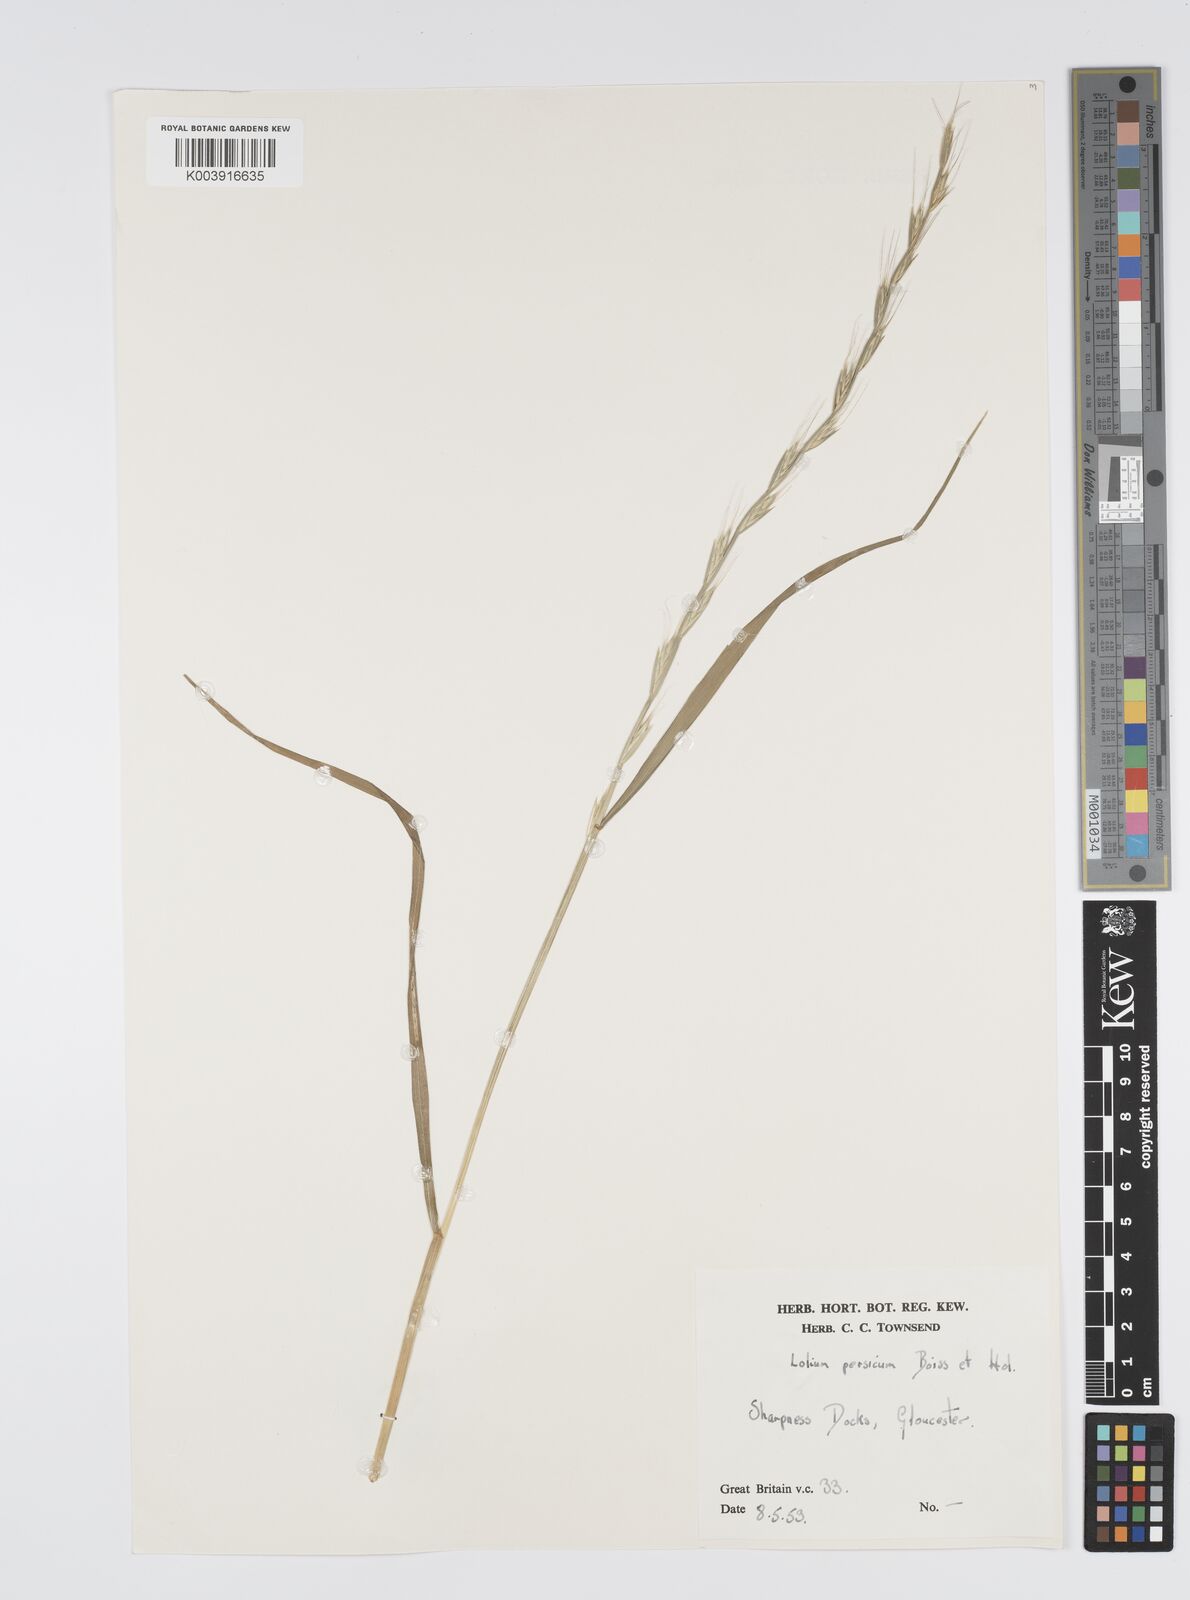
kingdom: Plantae
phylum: Tracheophyta
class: Liliopsida
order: Poales
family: Poaceae
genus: Lolium
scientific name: Lolium persicum
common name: Persian ryegrass
